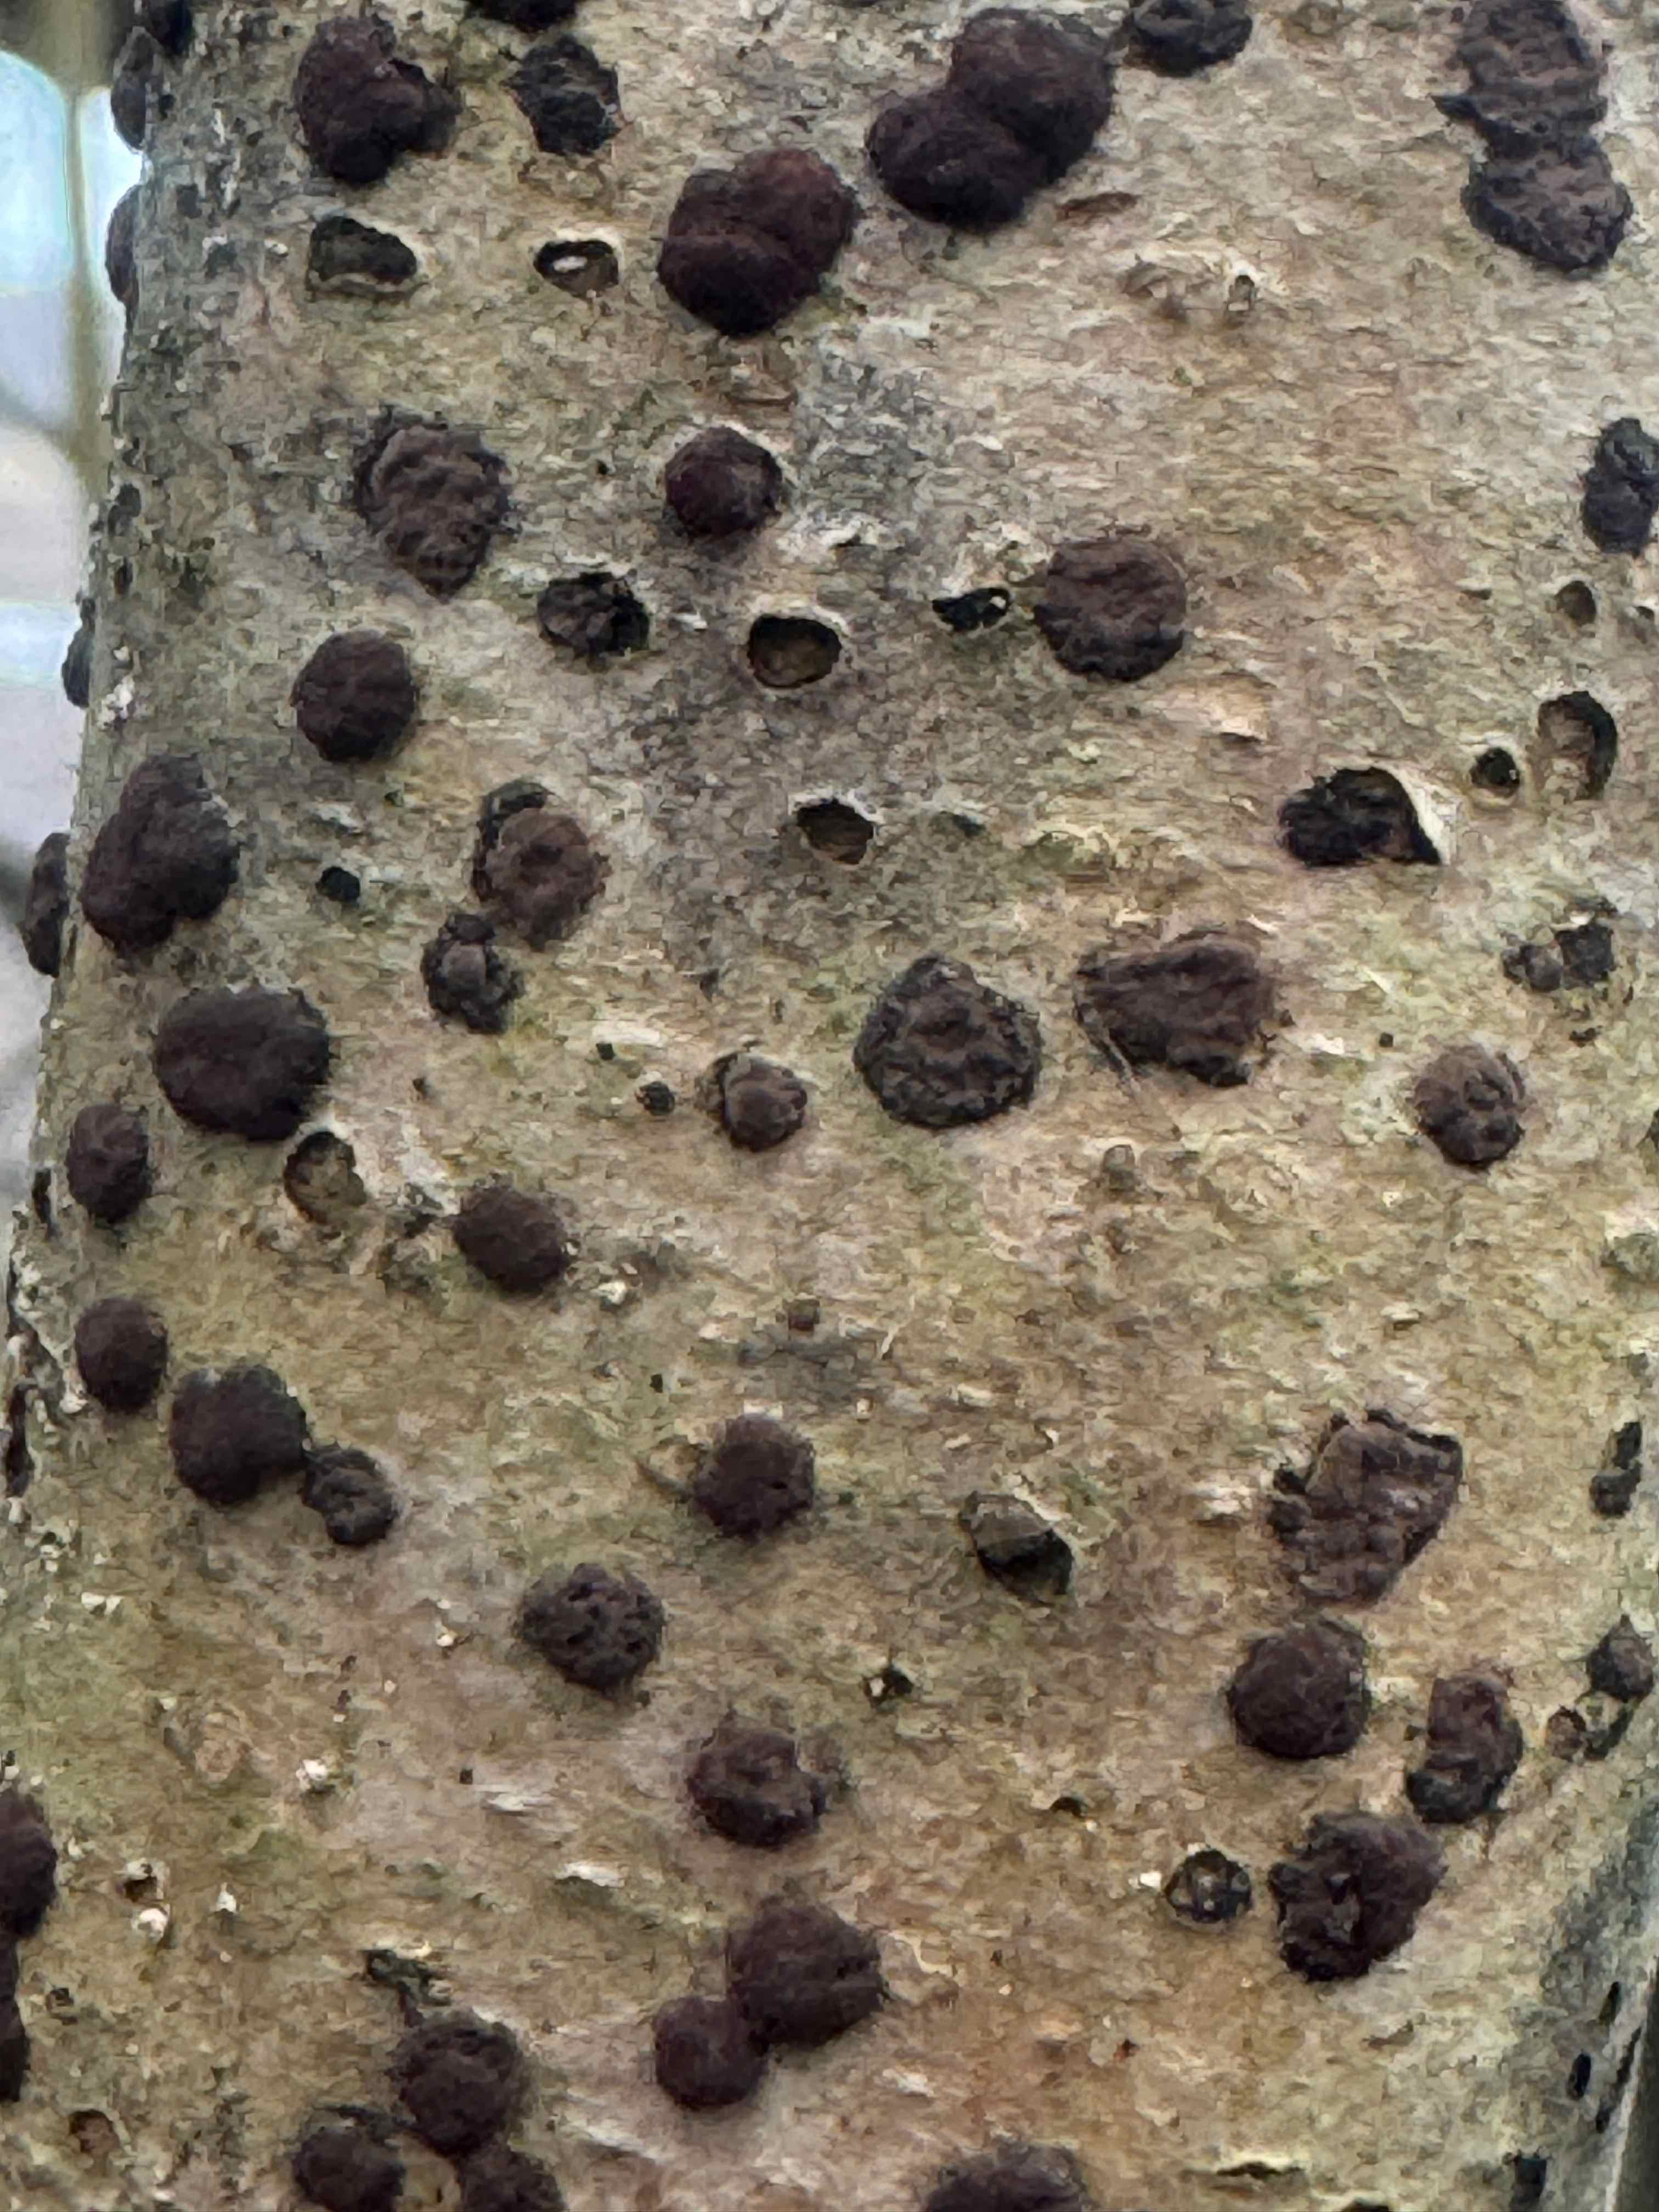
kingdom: Fungi
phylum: Ascomycota
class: Sordariomycetes
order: Xylariales
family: Hypoxylaceae
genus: Hypoxylon
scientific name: Hypoxylon fuscum
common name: kegleformet kulbær
